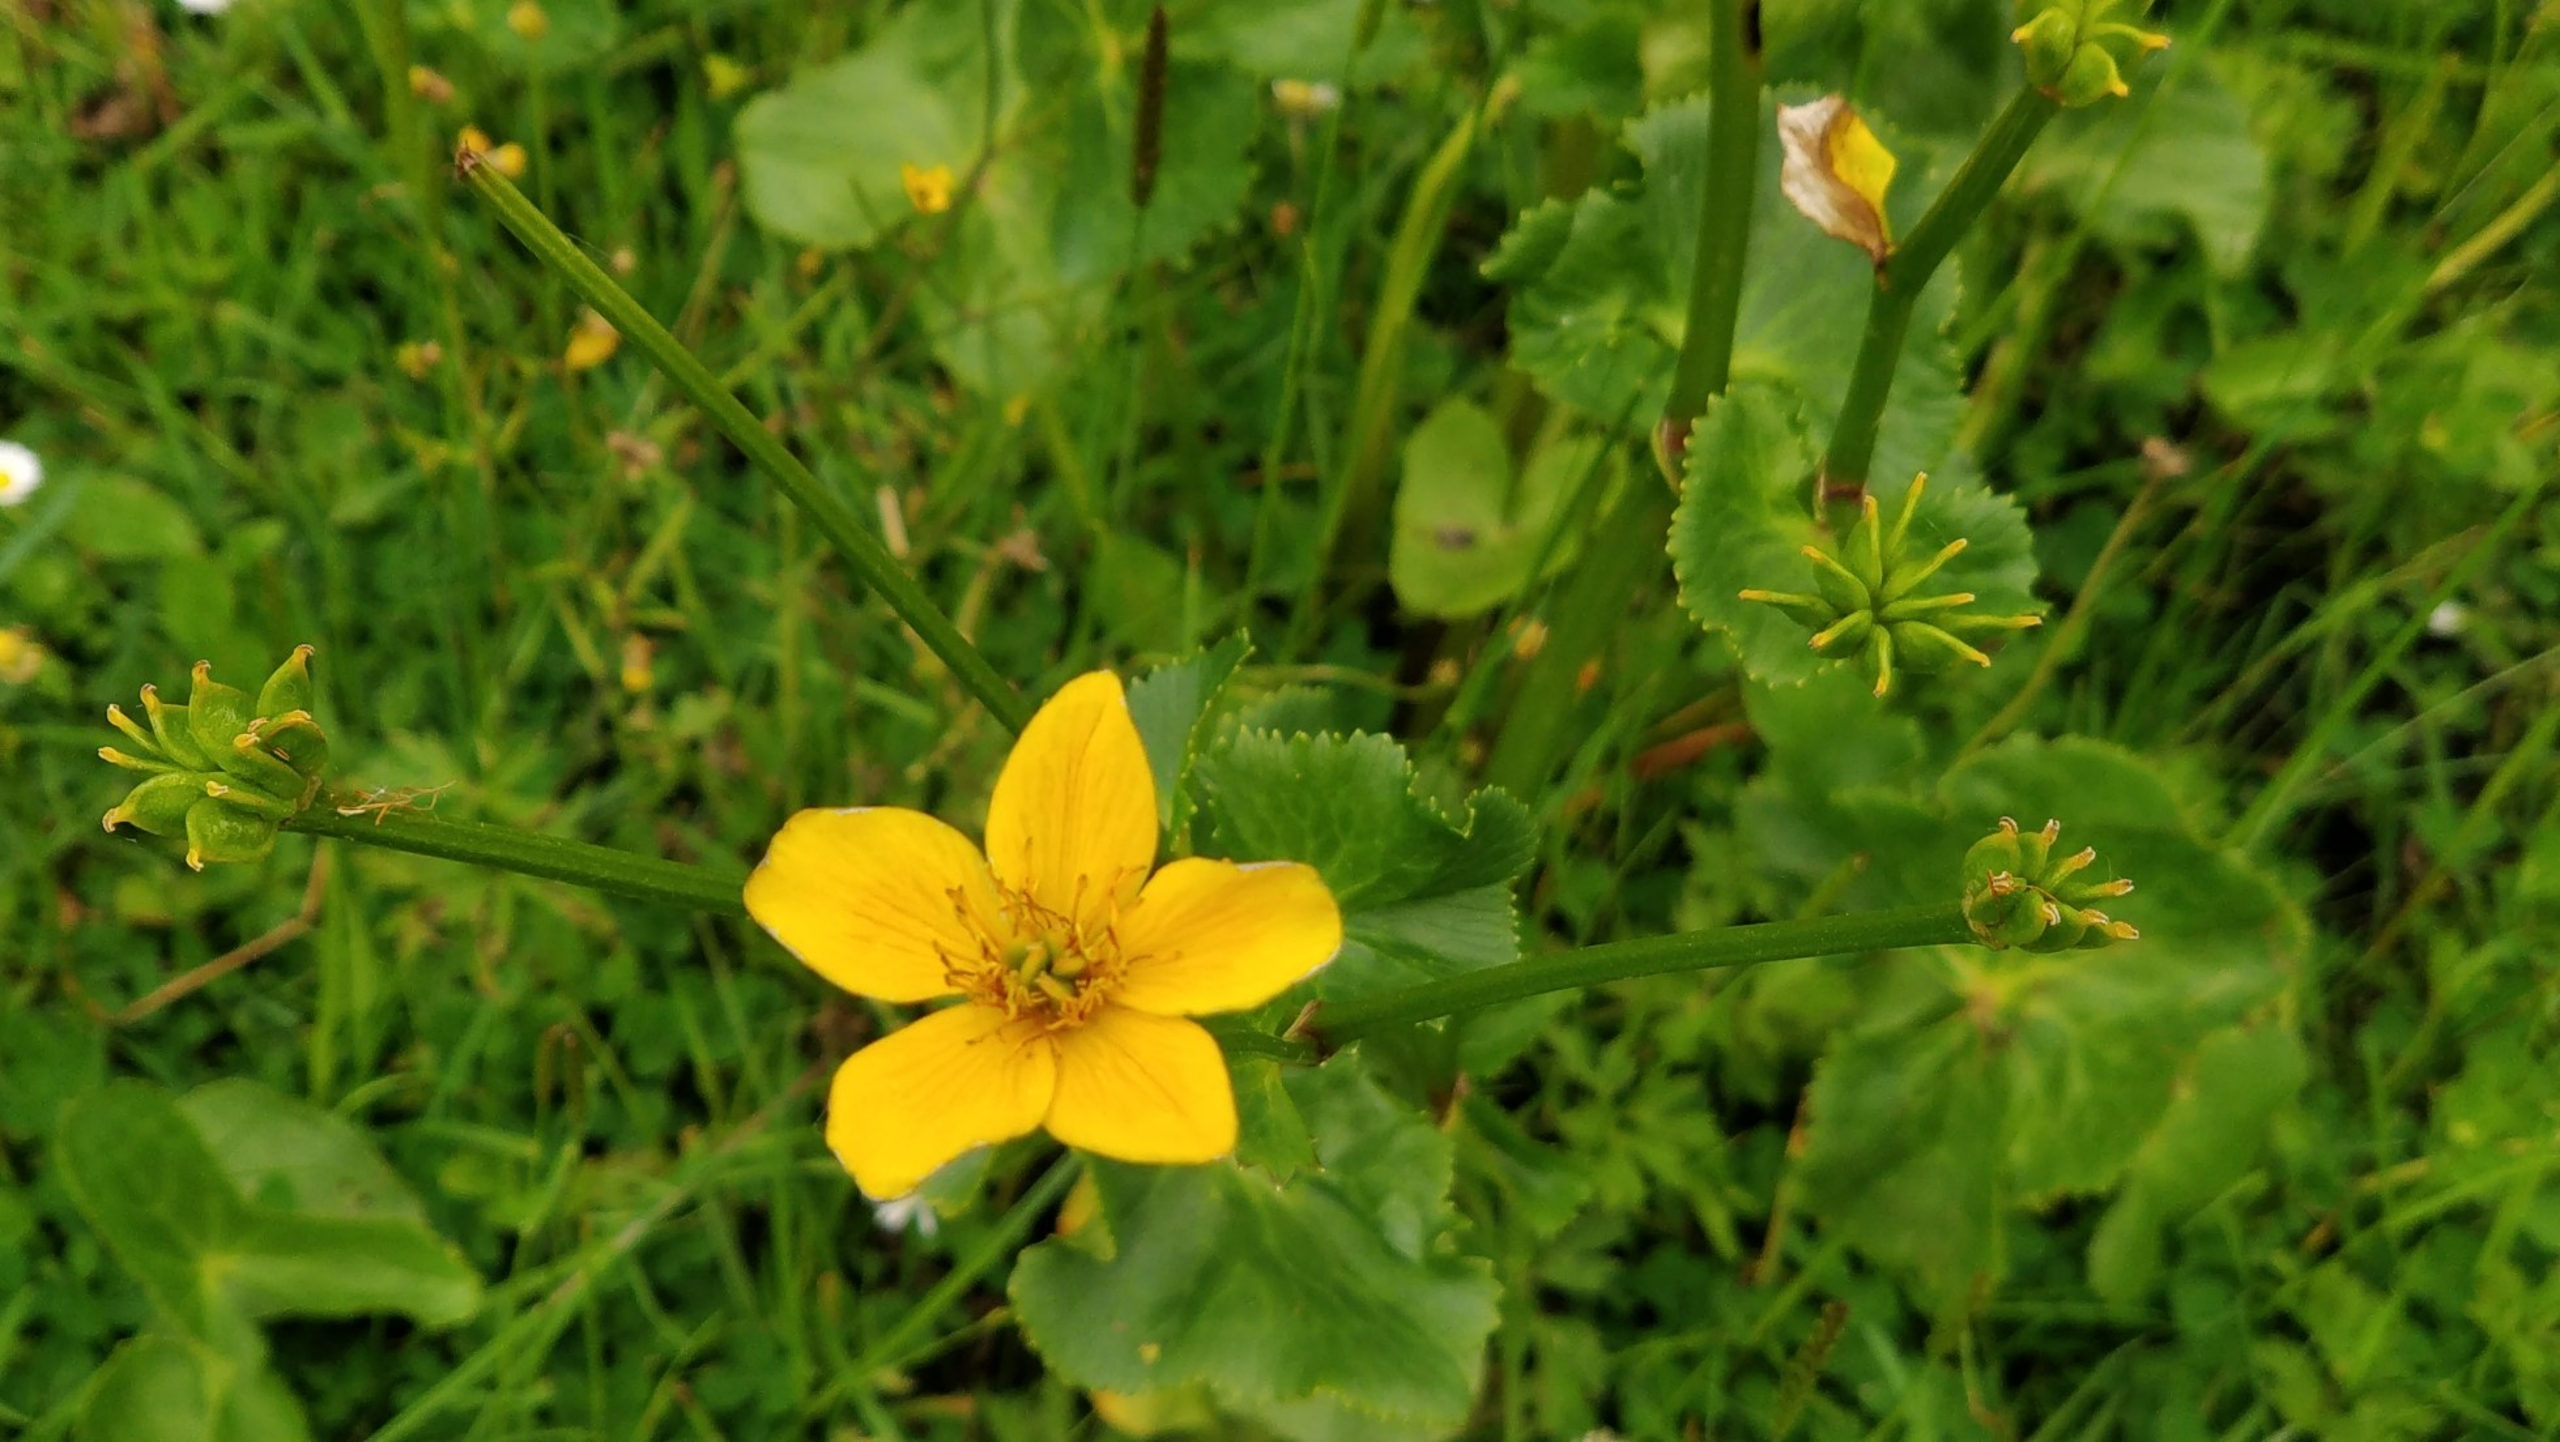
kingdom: Plantae
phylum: Tracheophyta
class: Magnoliopsida
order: Ranunculales
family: Ranunculaceae
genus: Caltha
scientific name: Caltha palustris
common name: Eng-kabbeleje
